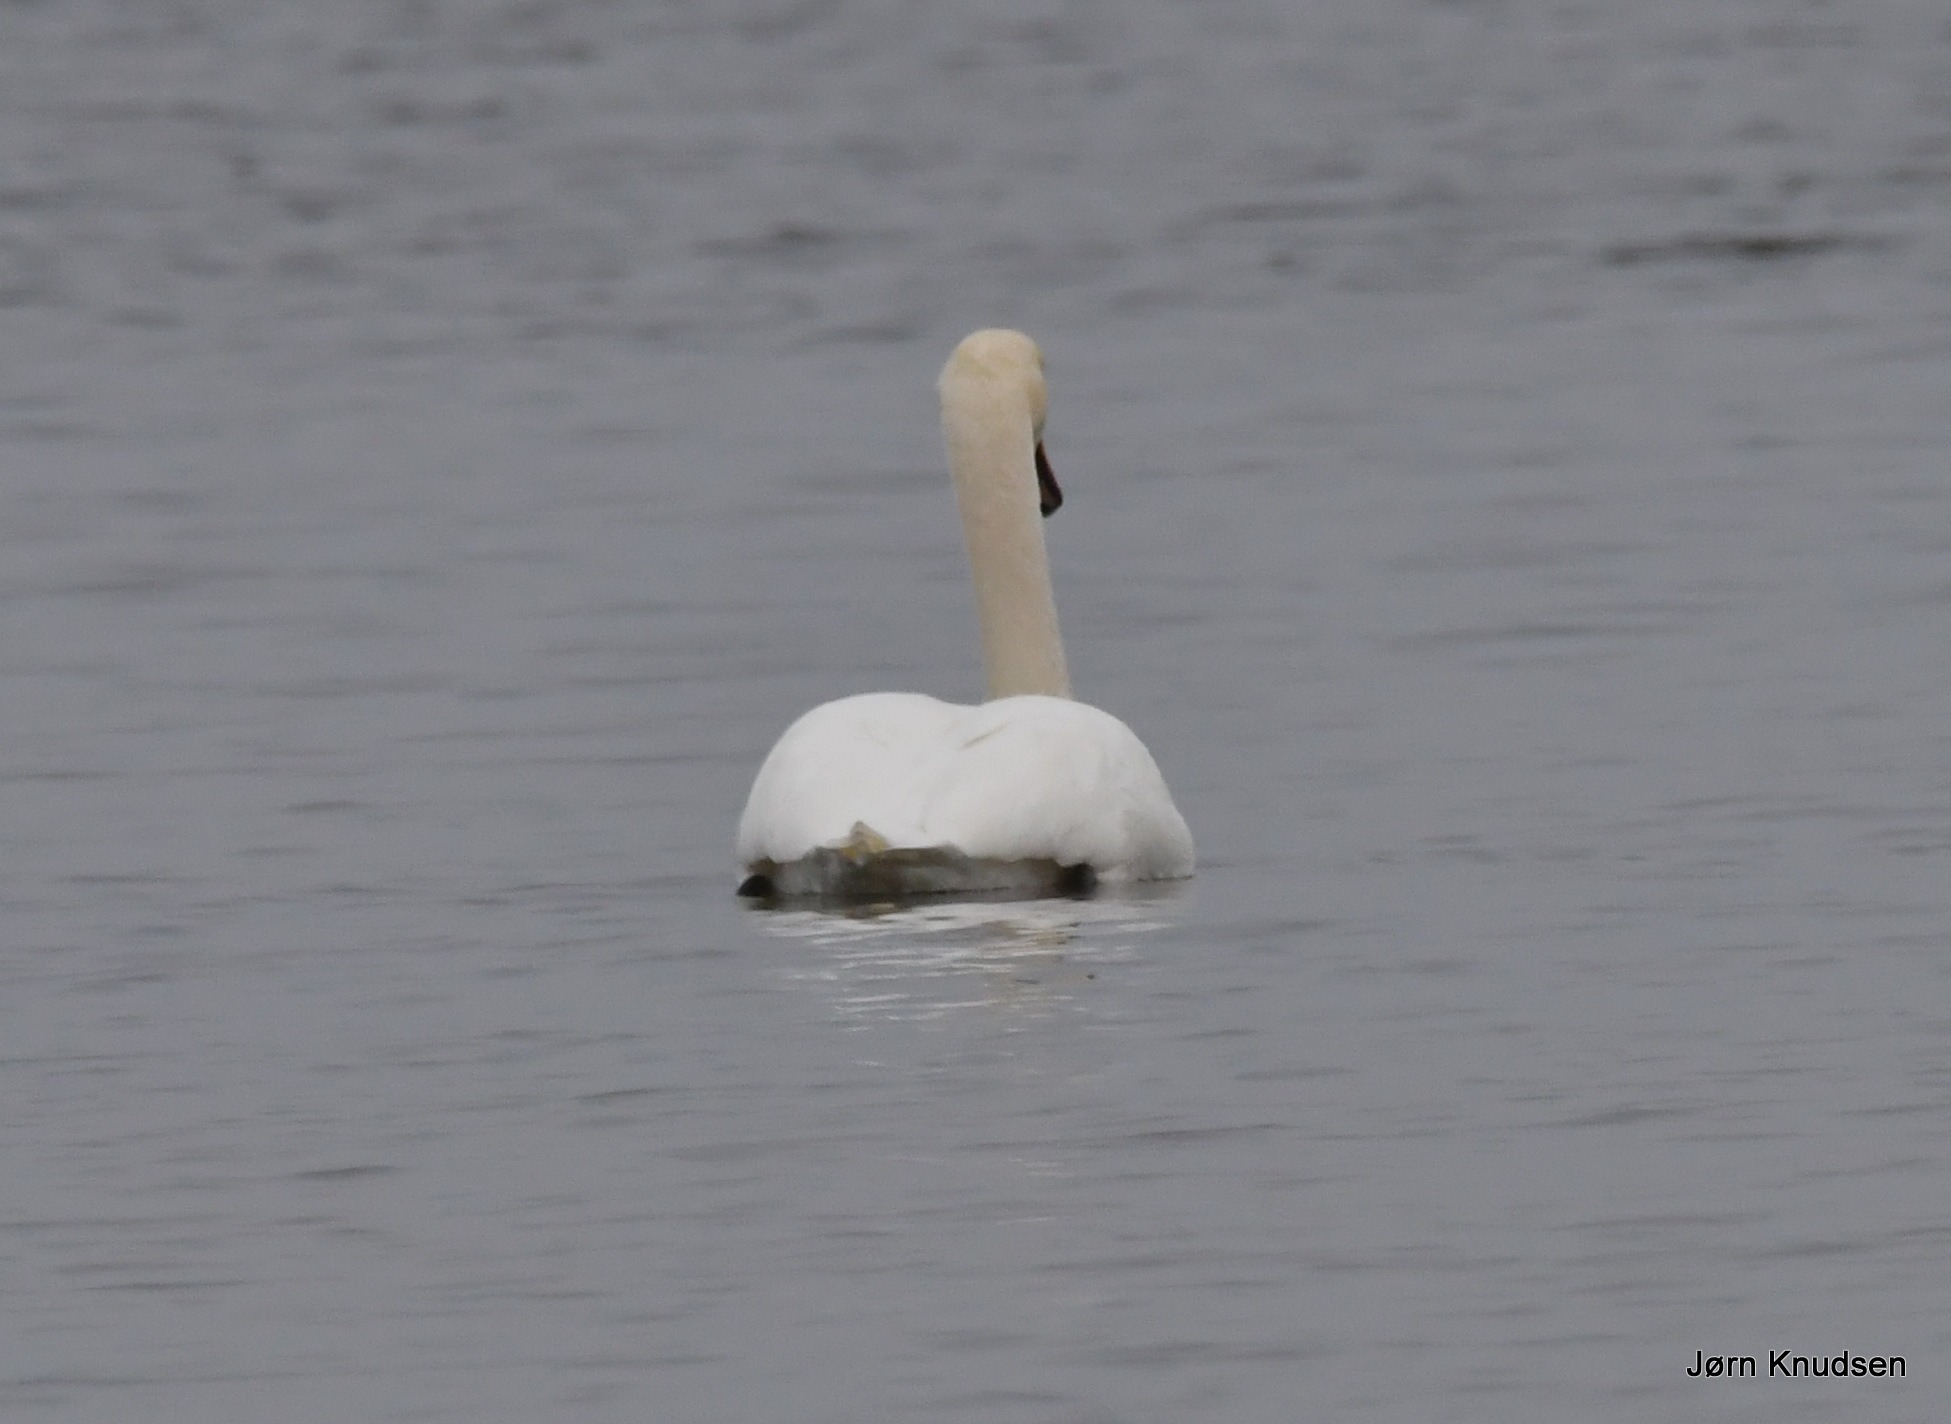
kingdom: Animalia
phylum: Chordata
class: Aves
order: Anseriformes
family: Anatidae
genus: Cygnus
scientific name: Cygnus olor
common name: Knopsvane
